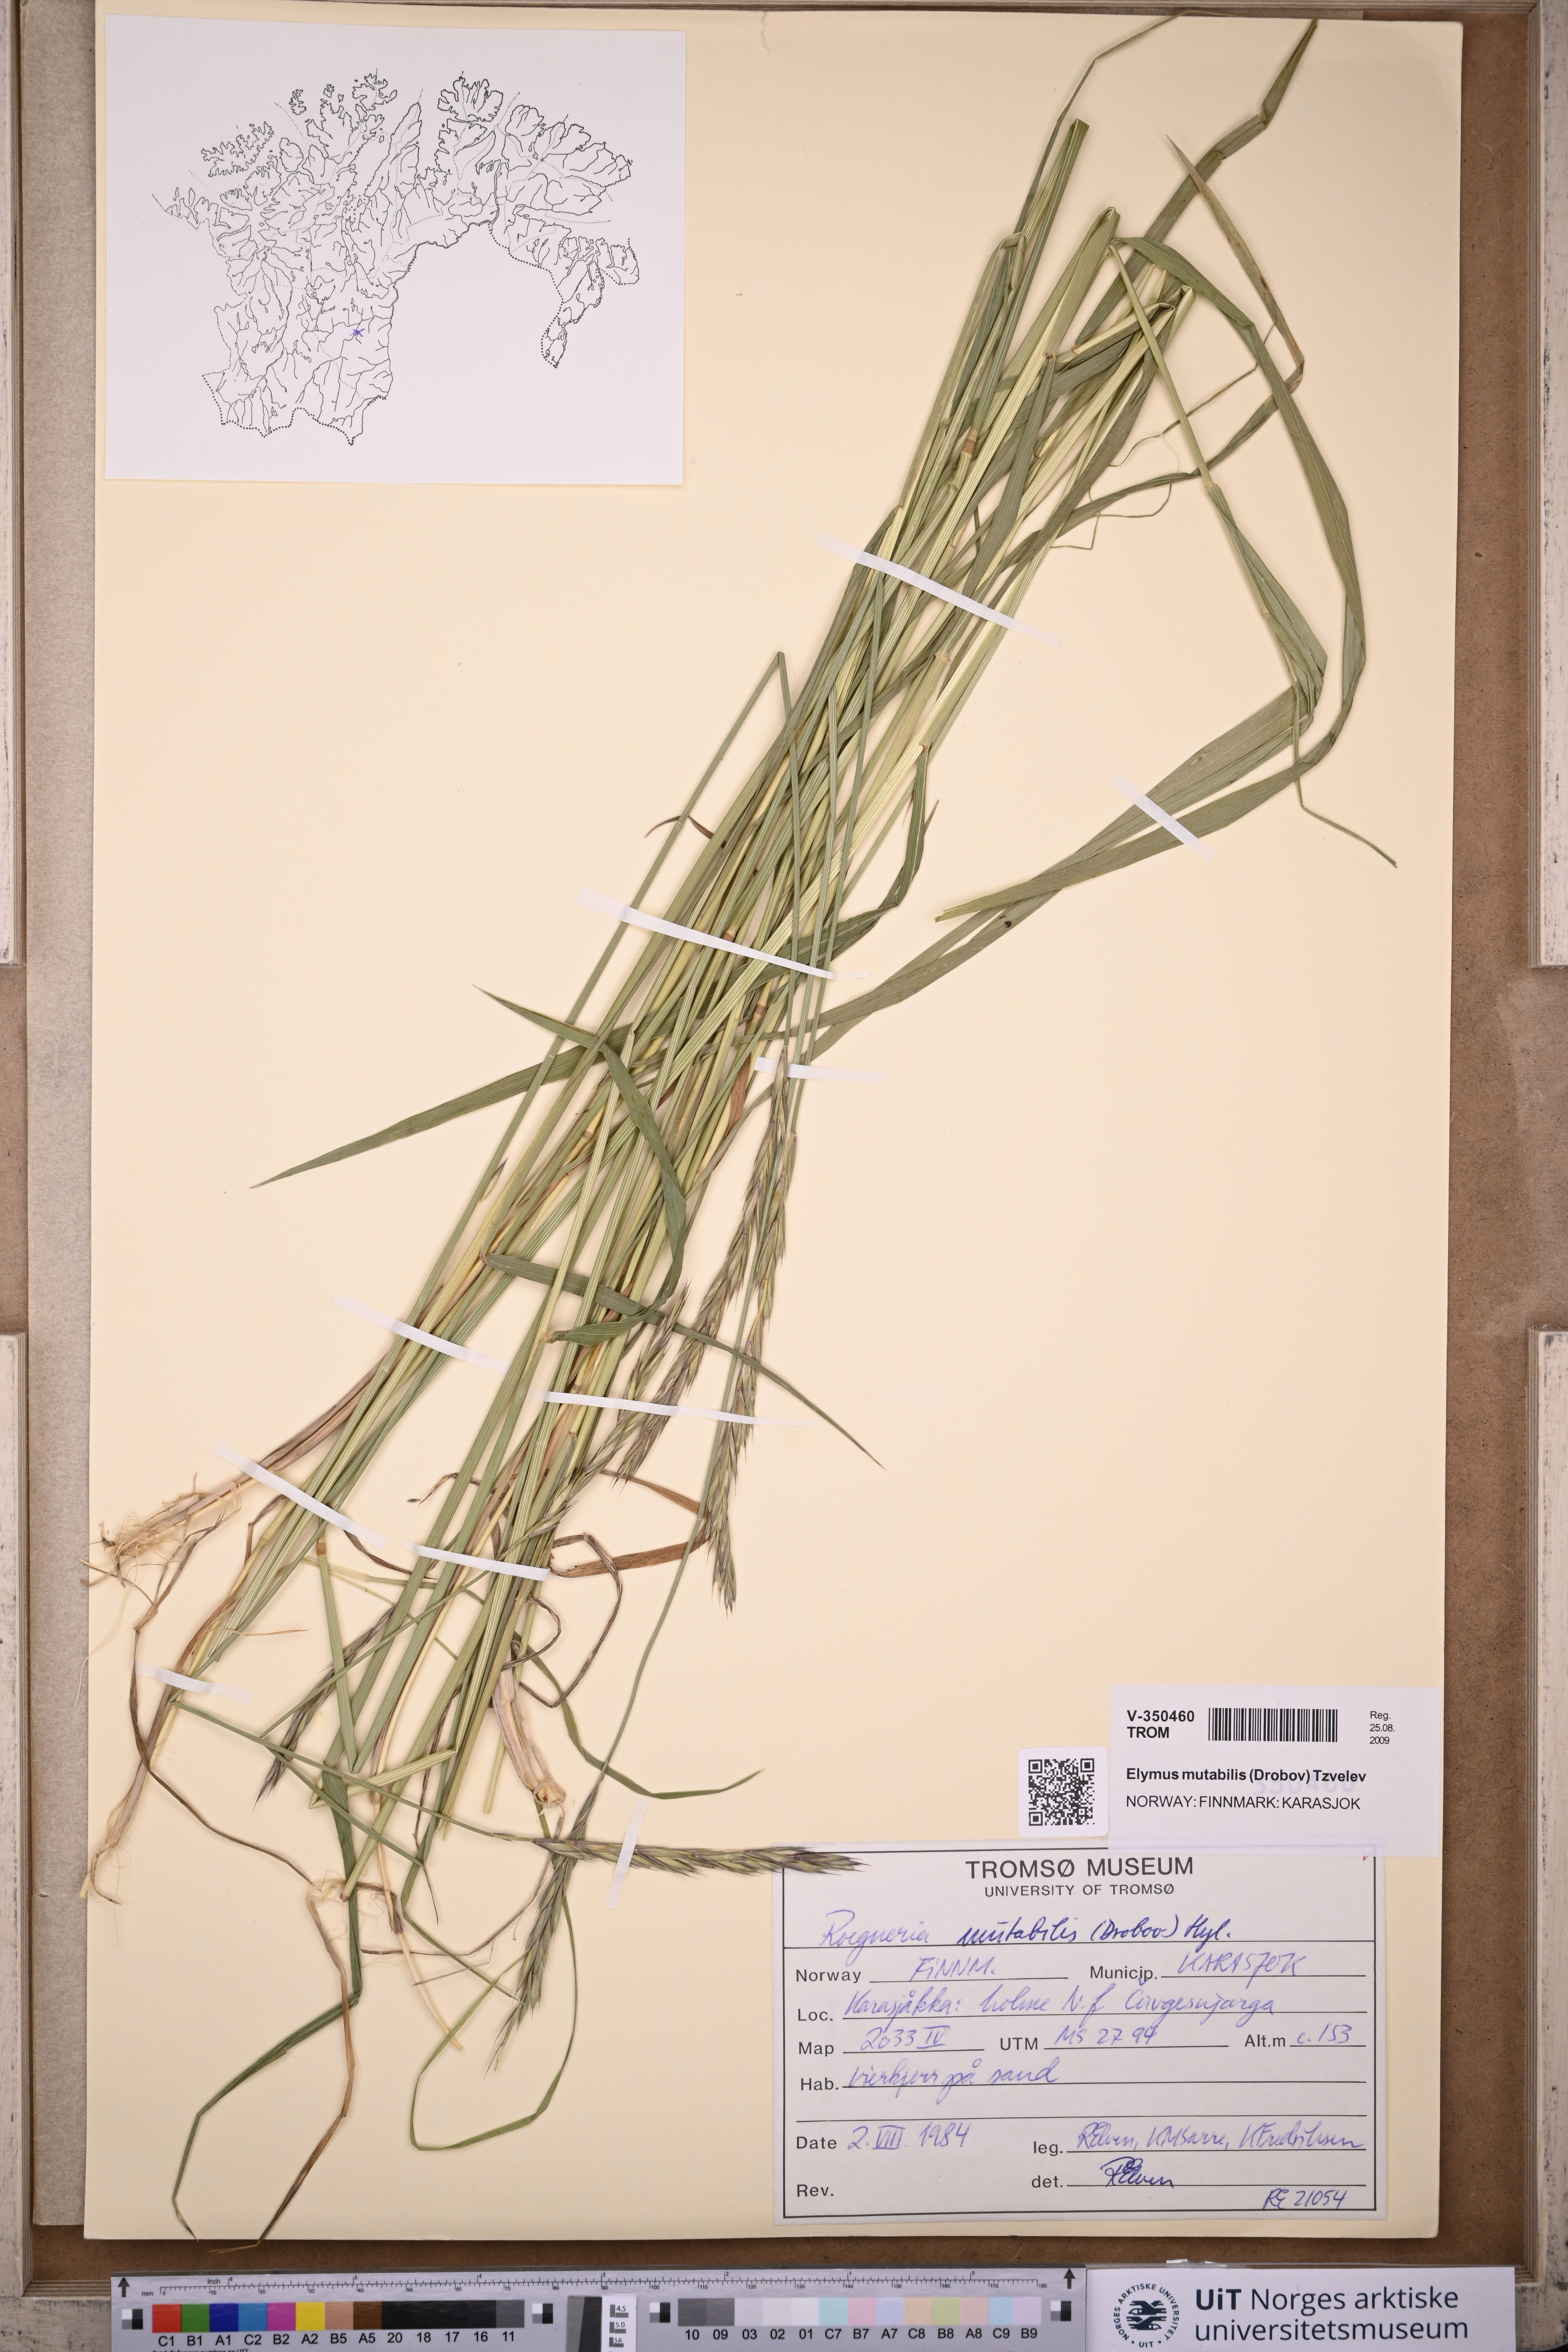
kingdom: Plantae
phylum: Tracheophyta
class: Liliopsida
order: Poales
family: Poaceae
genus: Elymus
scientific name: Elymus mutabilis
